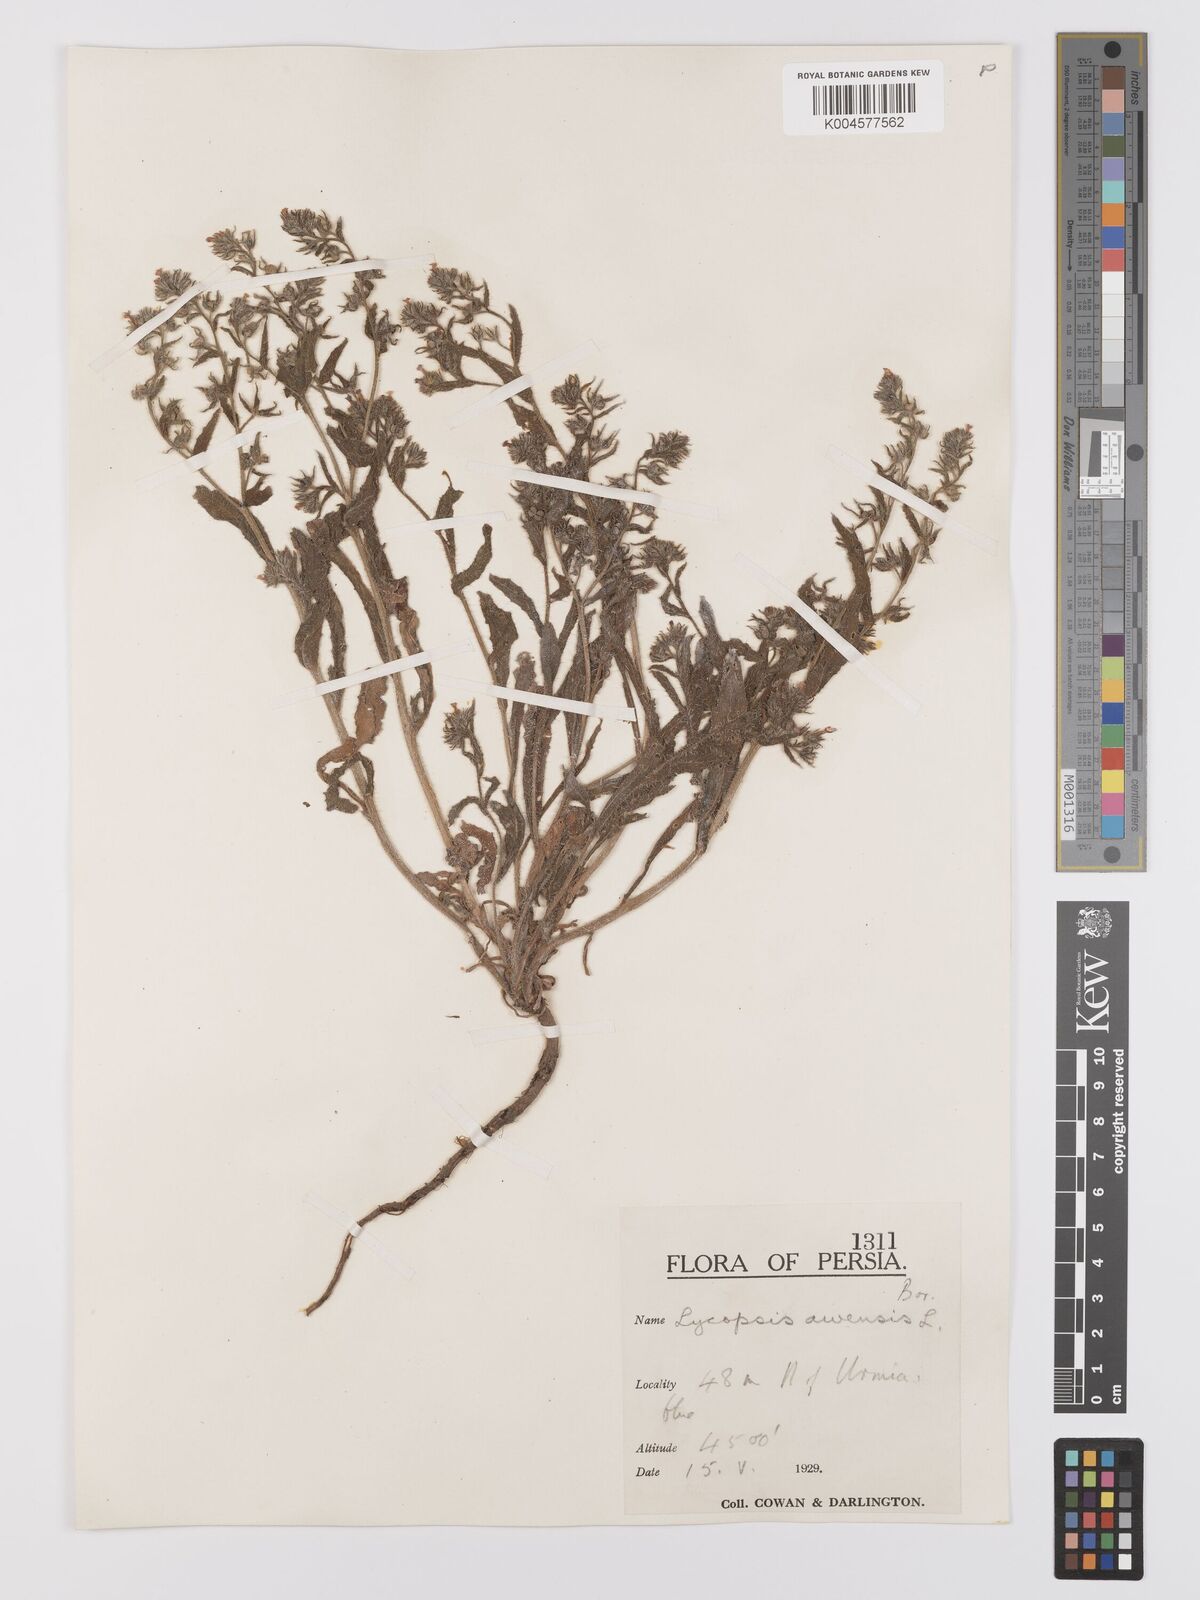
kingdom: Plantae
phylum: Tracheophyta
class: Magnoliopsida
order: Boraginales
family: Boraginaceae
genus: Lycopsis
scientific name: Lycopsis arvensis
